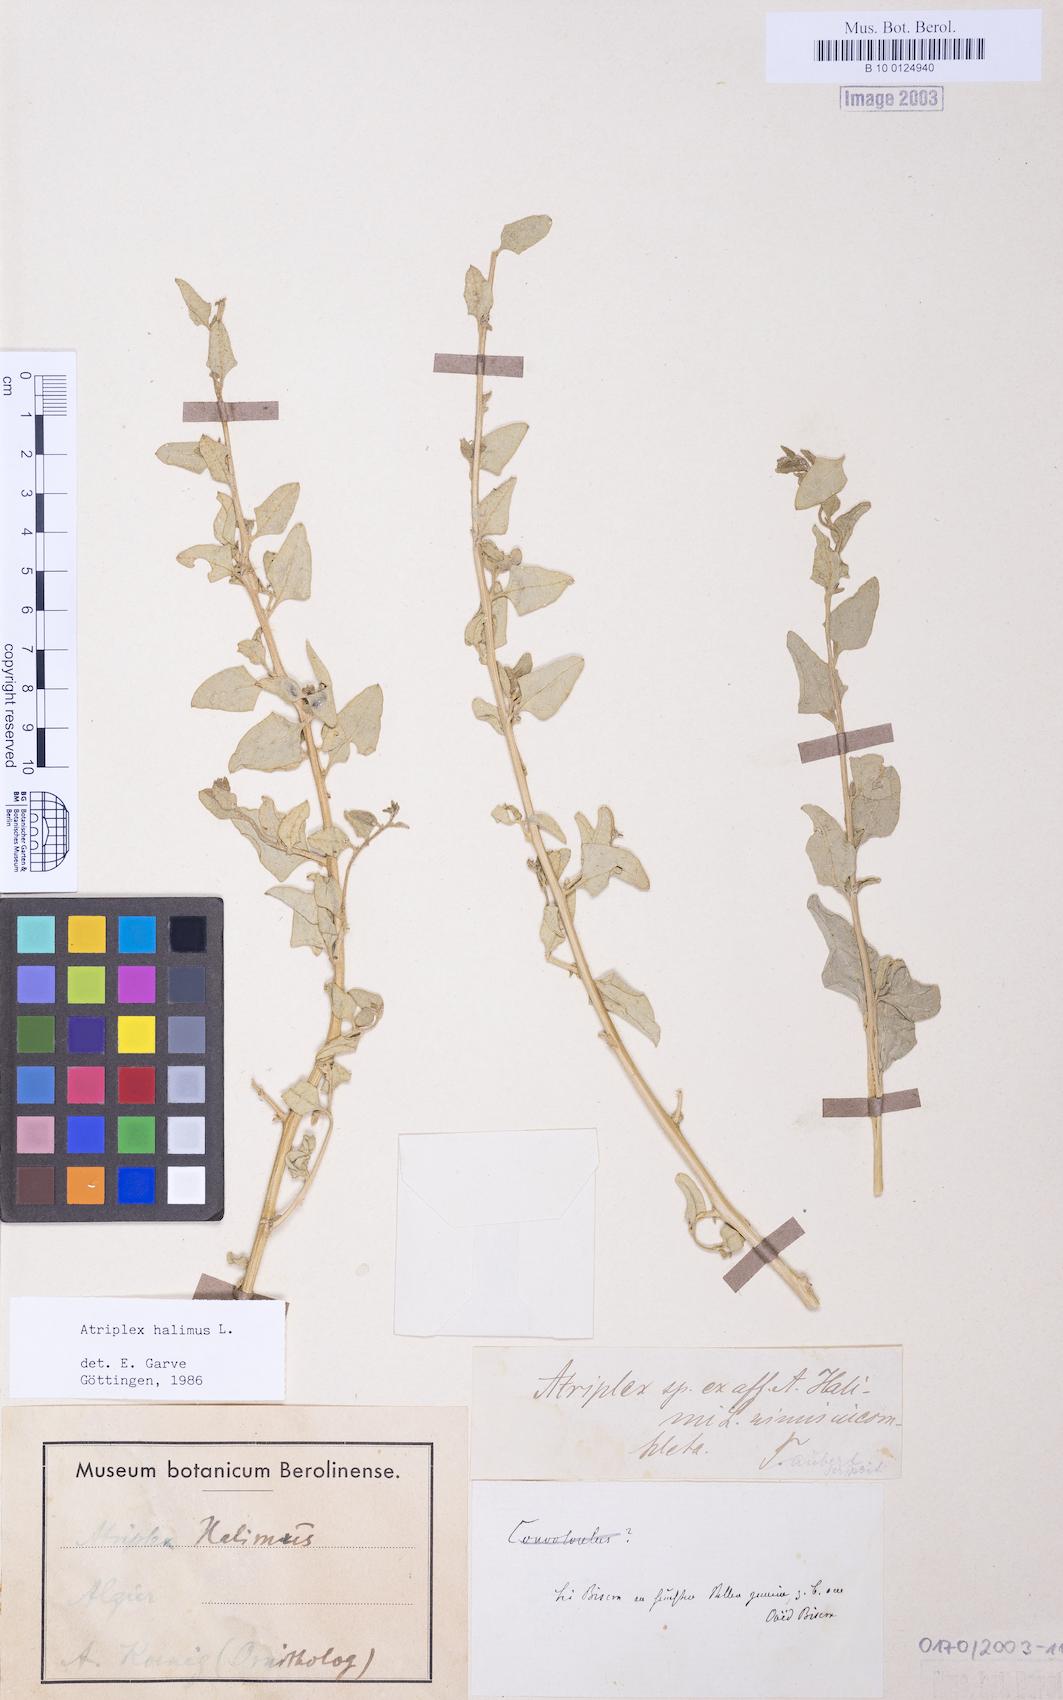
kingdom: Plantae
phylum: Tracheophyta
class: Magnoliopsida
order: Caryophyllales
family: Amaranthaceae
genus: Atriplex
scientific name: Atriplex halimus
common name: Shrubby orache
